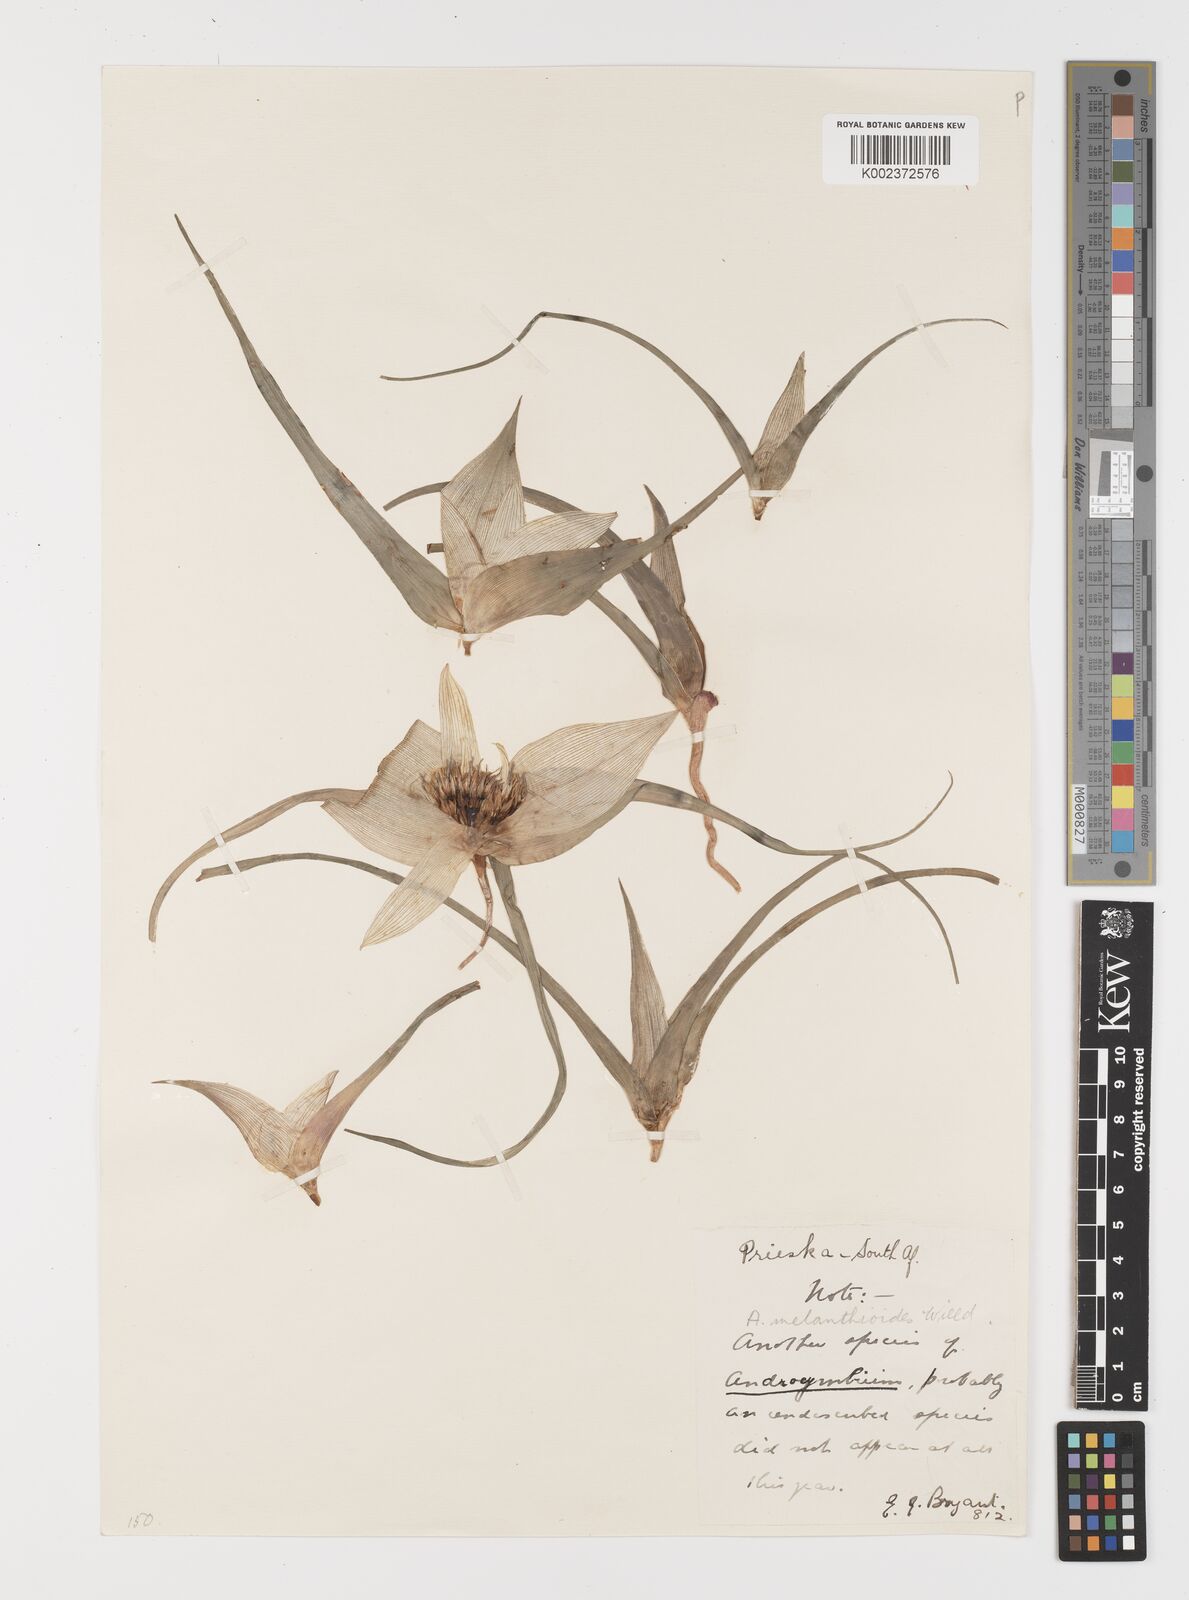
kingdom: Plantae
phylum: Tracheophyta
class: Liliopsida
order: Liliales
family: Colchicaceae
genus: Colchicum
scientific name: Colchicum melanthioides
